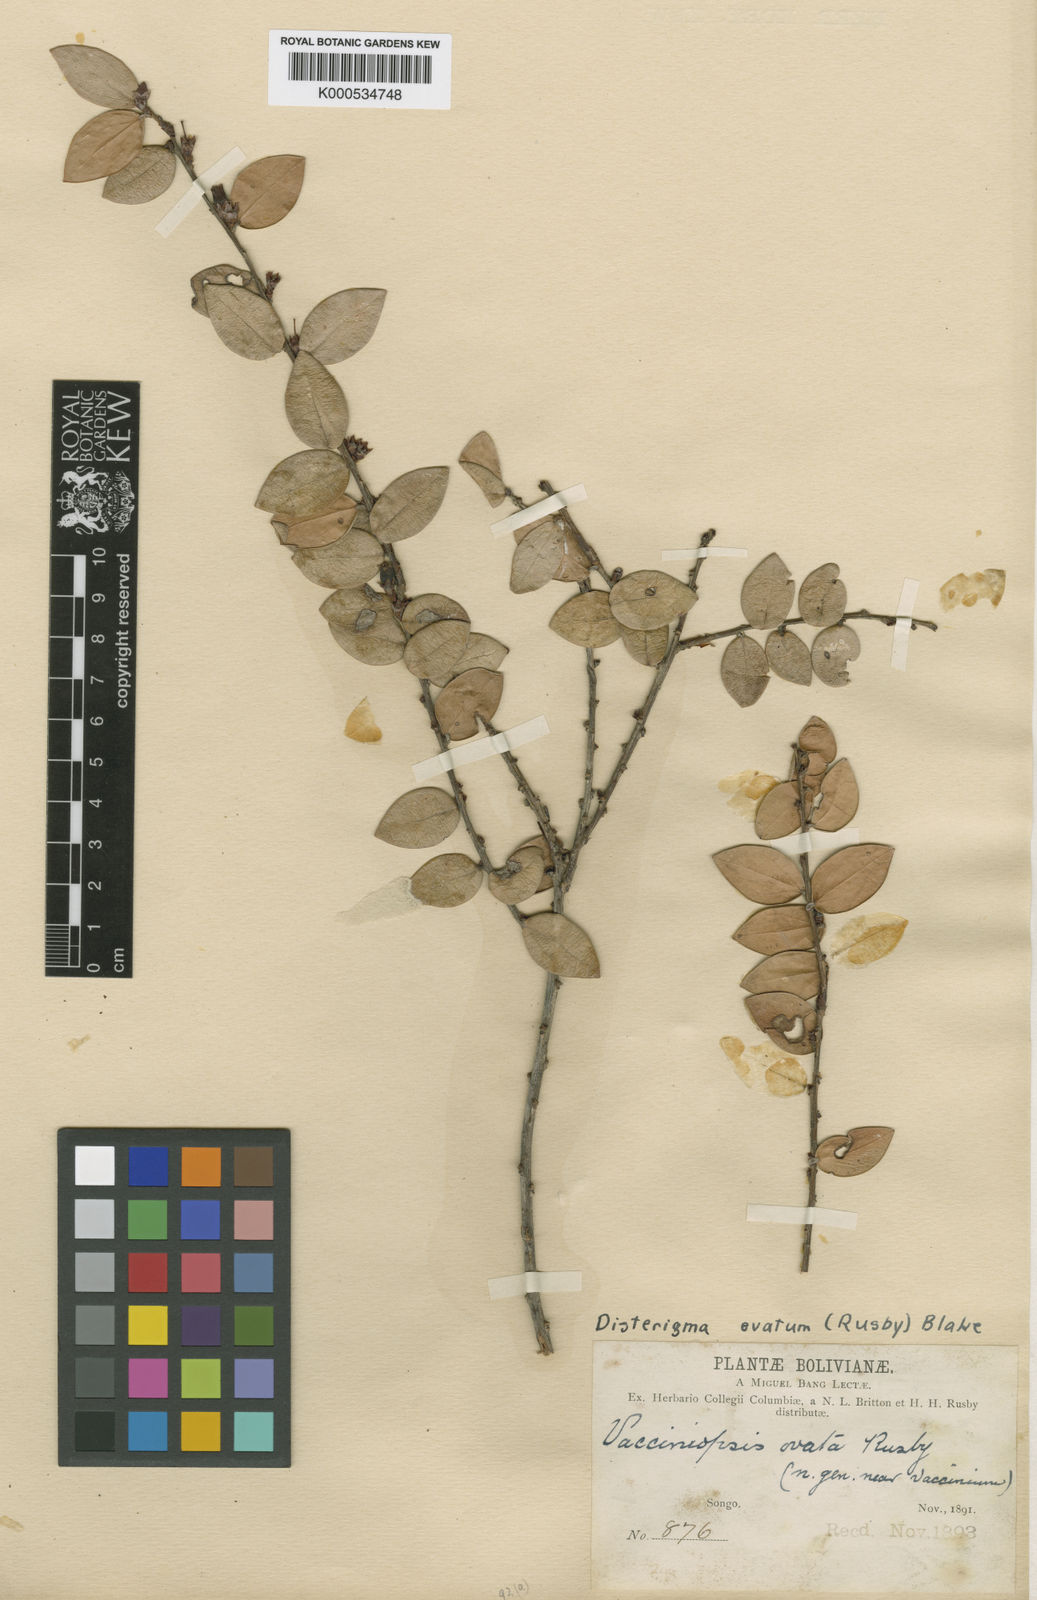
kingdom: Plantae
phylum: Tracheophyta
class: Magnoliopsida
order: Ericales
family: Ericaceae
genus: Disterigma
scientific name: Disterigma ovatum
